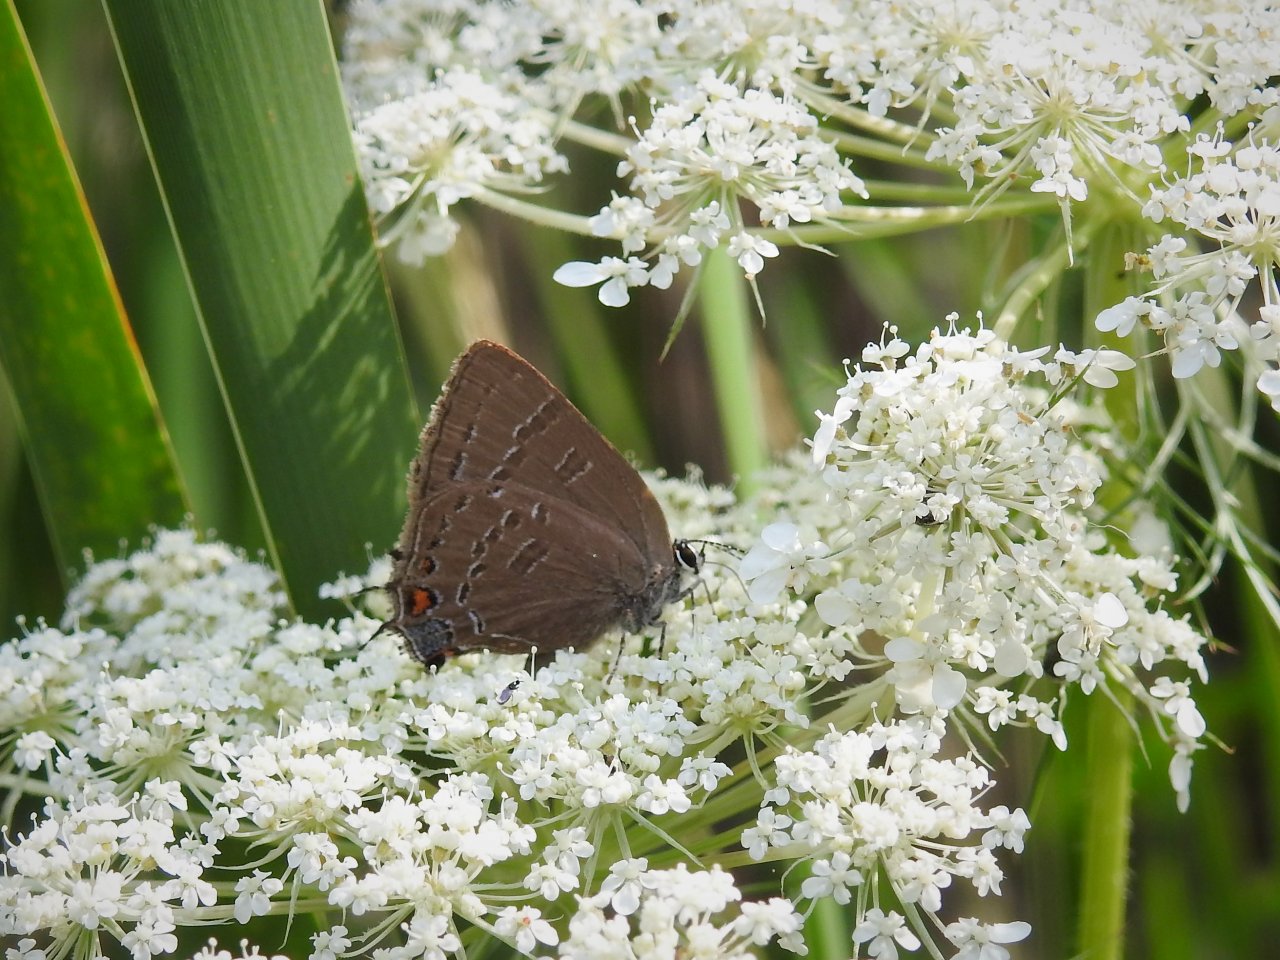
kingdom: Animalia
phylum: Arthropoda
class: Insecta
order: Lepidoptera
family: Lycaenidae
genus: Satyrium
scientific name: Satyrium calanus
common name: Banded Hairstreak
